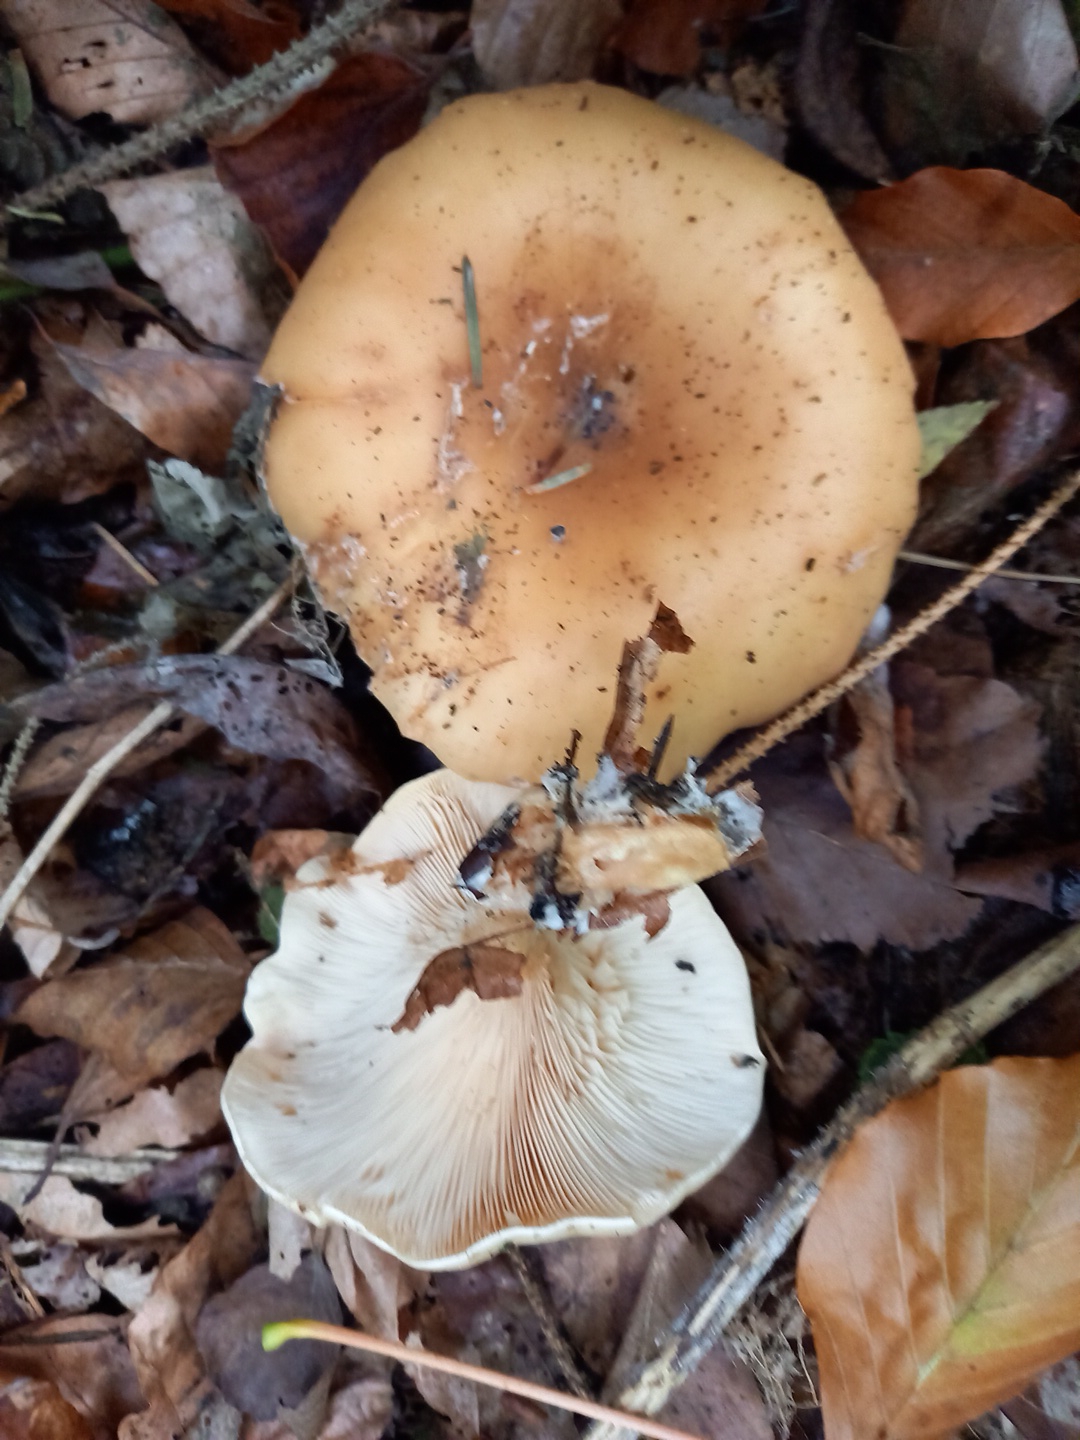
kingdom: Fungi
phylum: Basidiomycota
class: Agaricomycetes
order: Agaricales
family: Tricholomataceae
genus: Paralepista
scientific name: Paralepista flaccida
